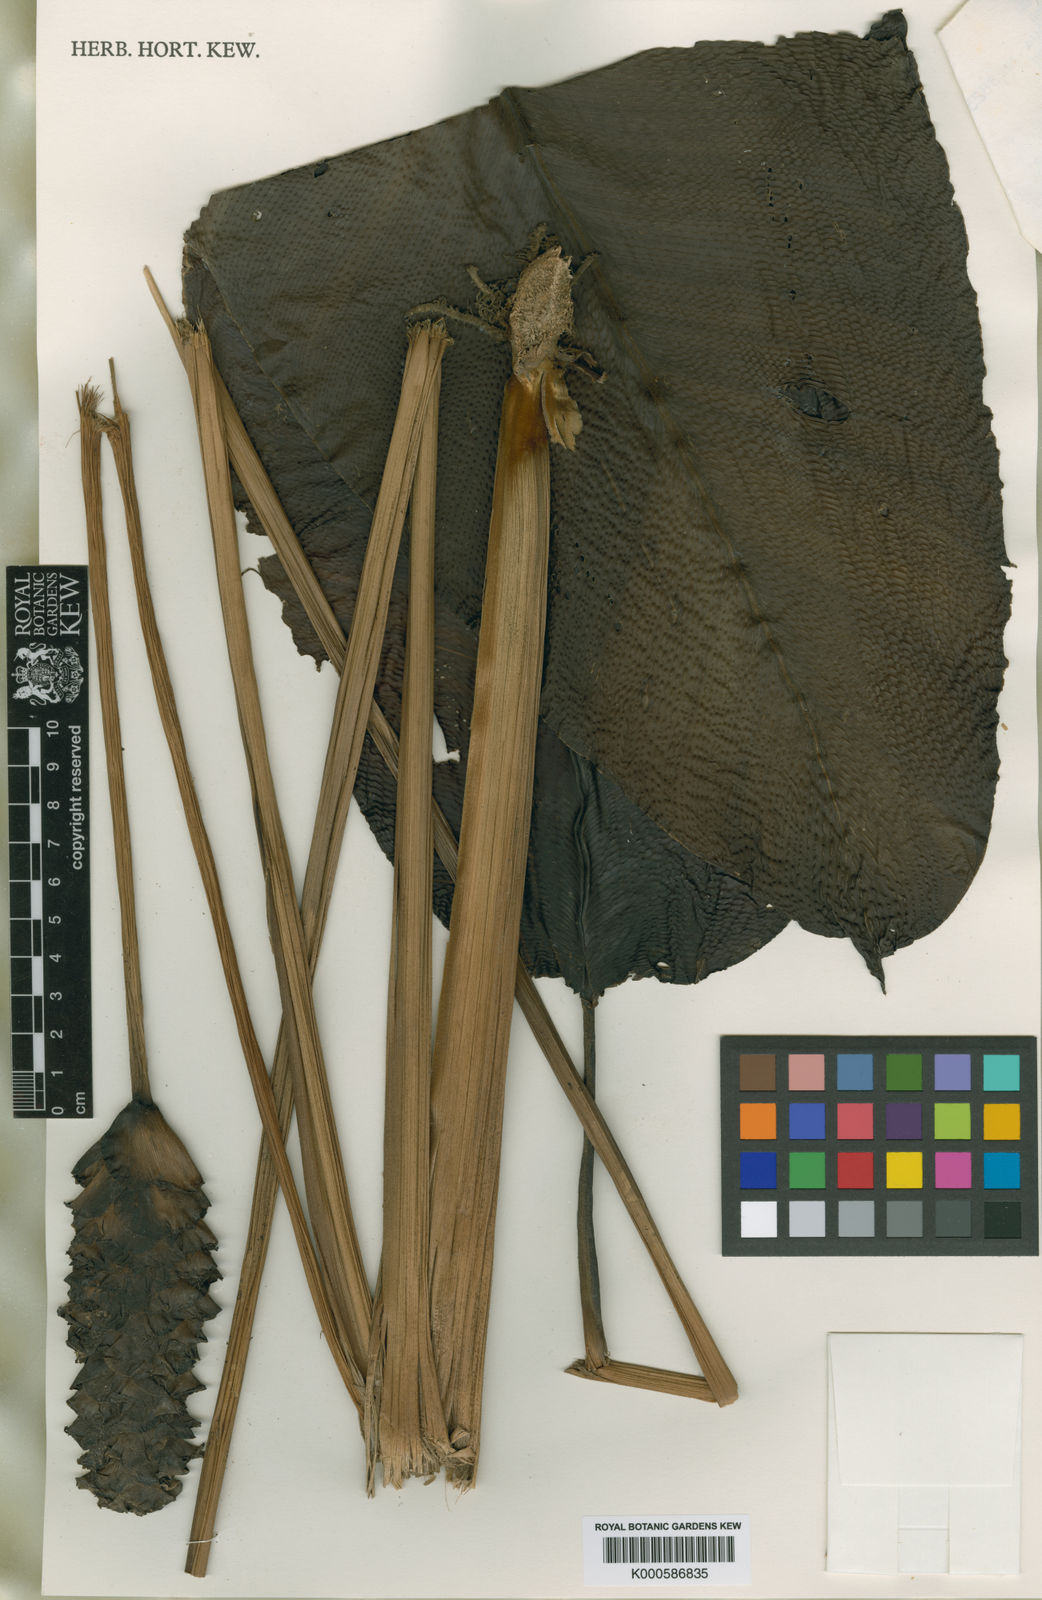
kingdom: Plantae
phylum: Tracheophyta
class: Liliopsida
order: Zingiberales
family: Marantaceae
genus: Calathea
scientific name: Calathea
